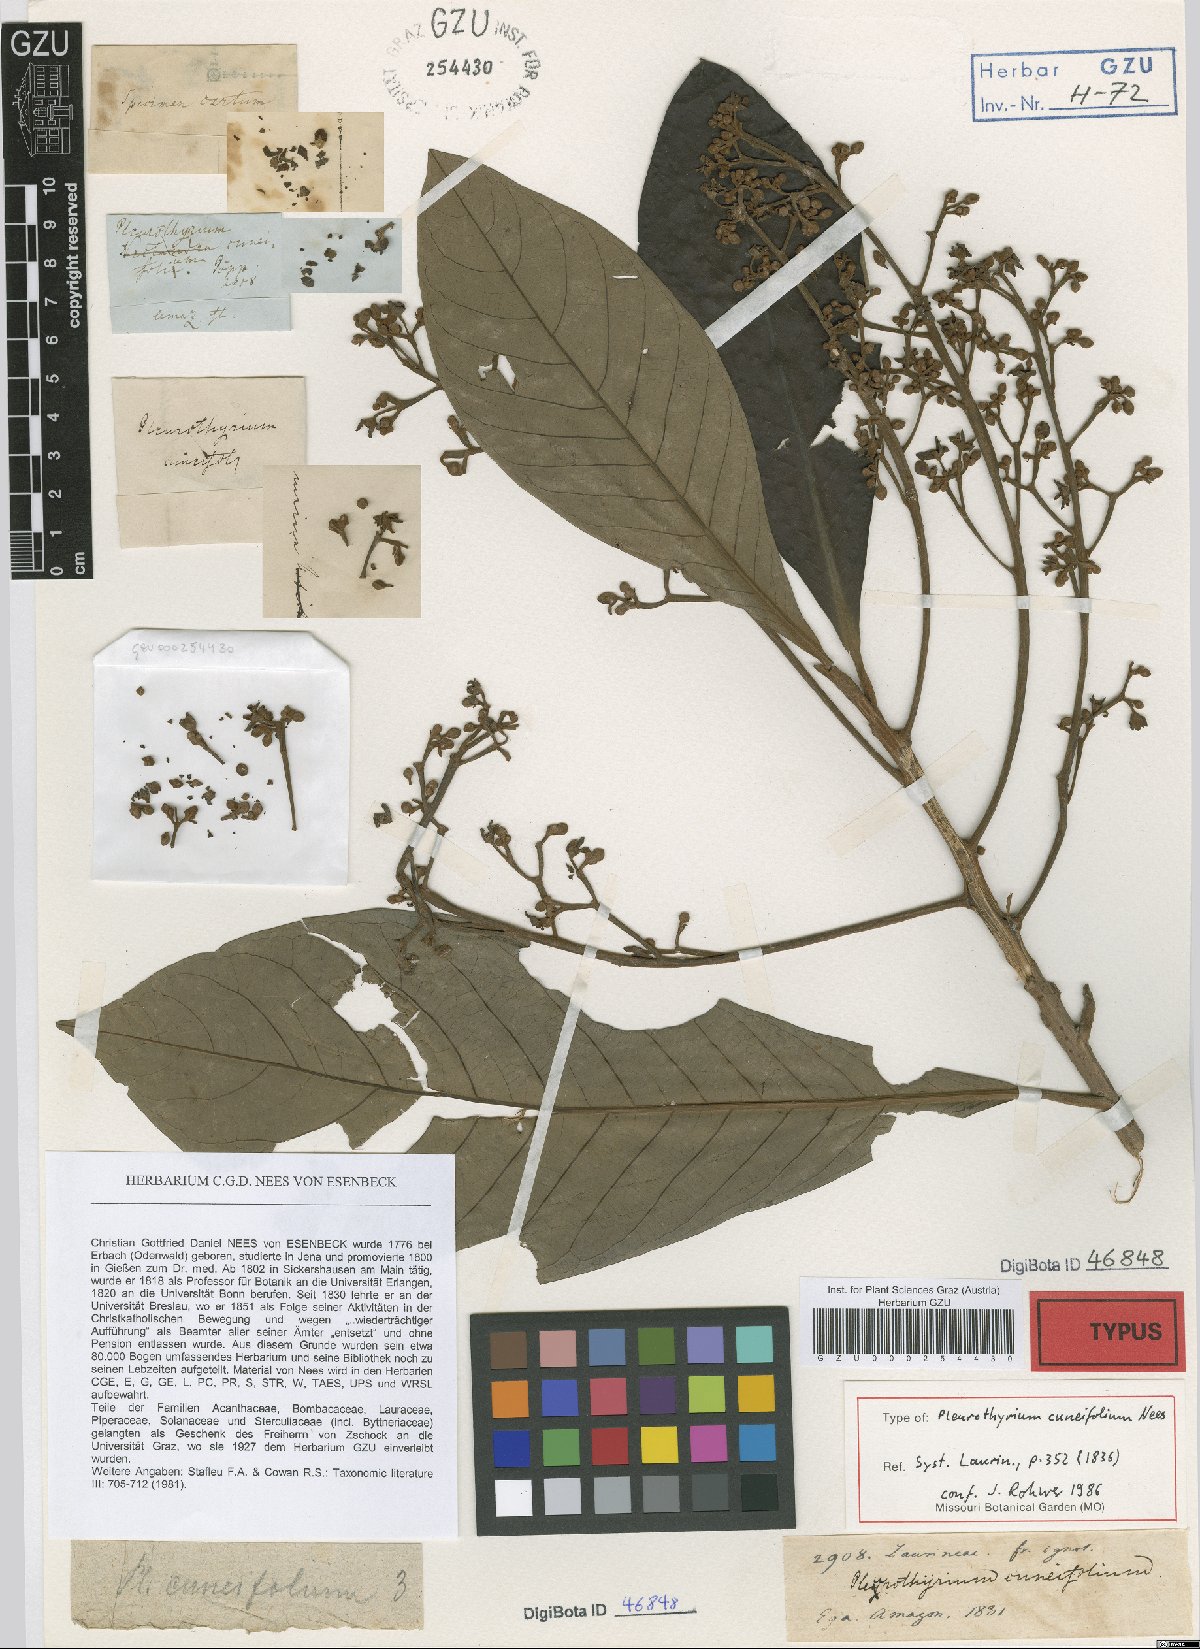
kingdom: Plantae
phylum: Tracheophyta
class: Magnoliopsida
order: Laurales
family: Lauraceae
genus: Pleurothyrium
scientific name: Pleurothyrium cuneifolium
